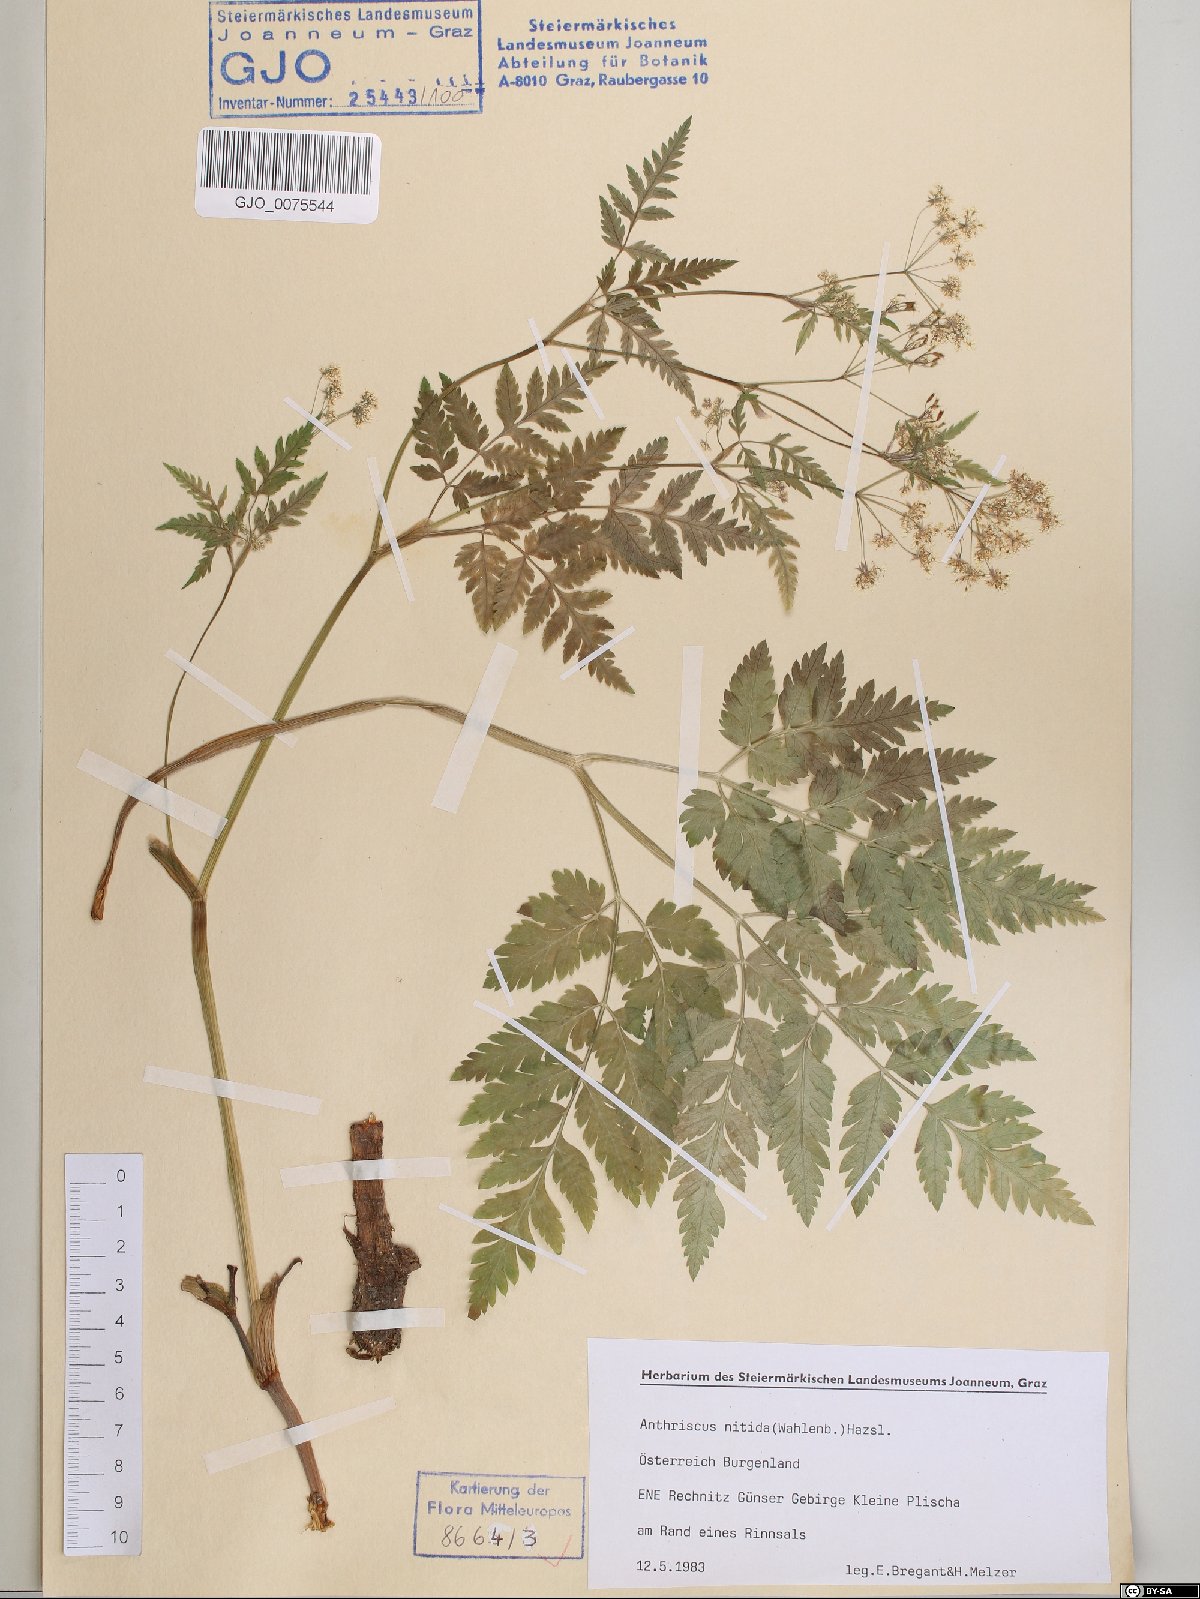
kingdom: Plantae
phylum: Tracheophyta
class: Magnoliopsida
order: Apiales
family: Apiaceae
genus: Anthriscus
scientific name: Anthriscus nitida
